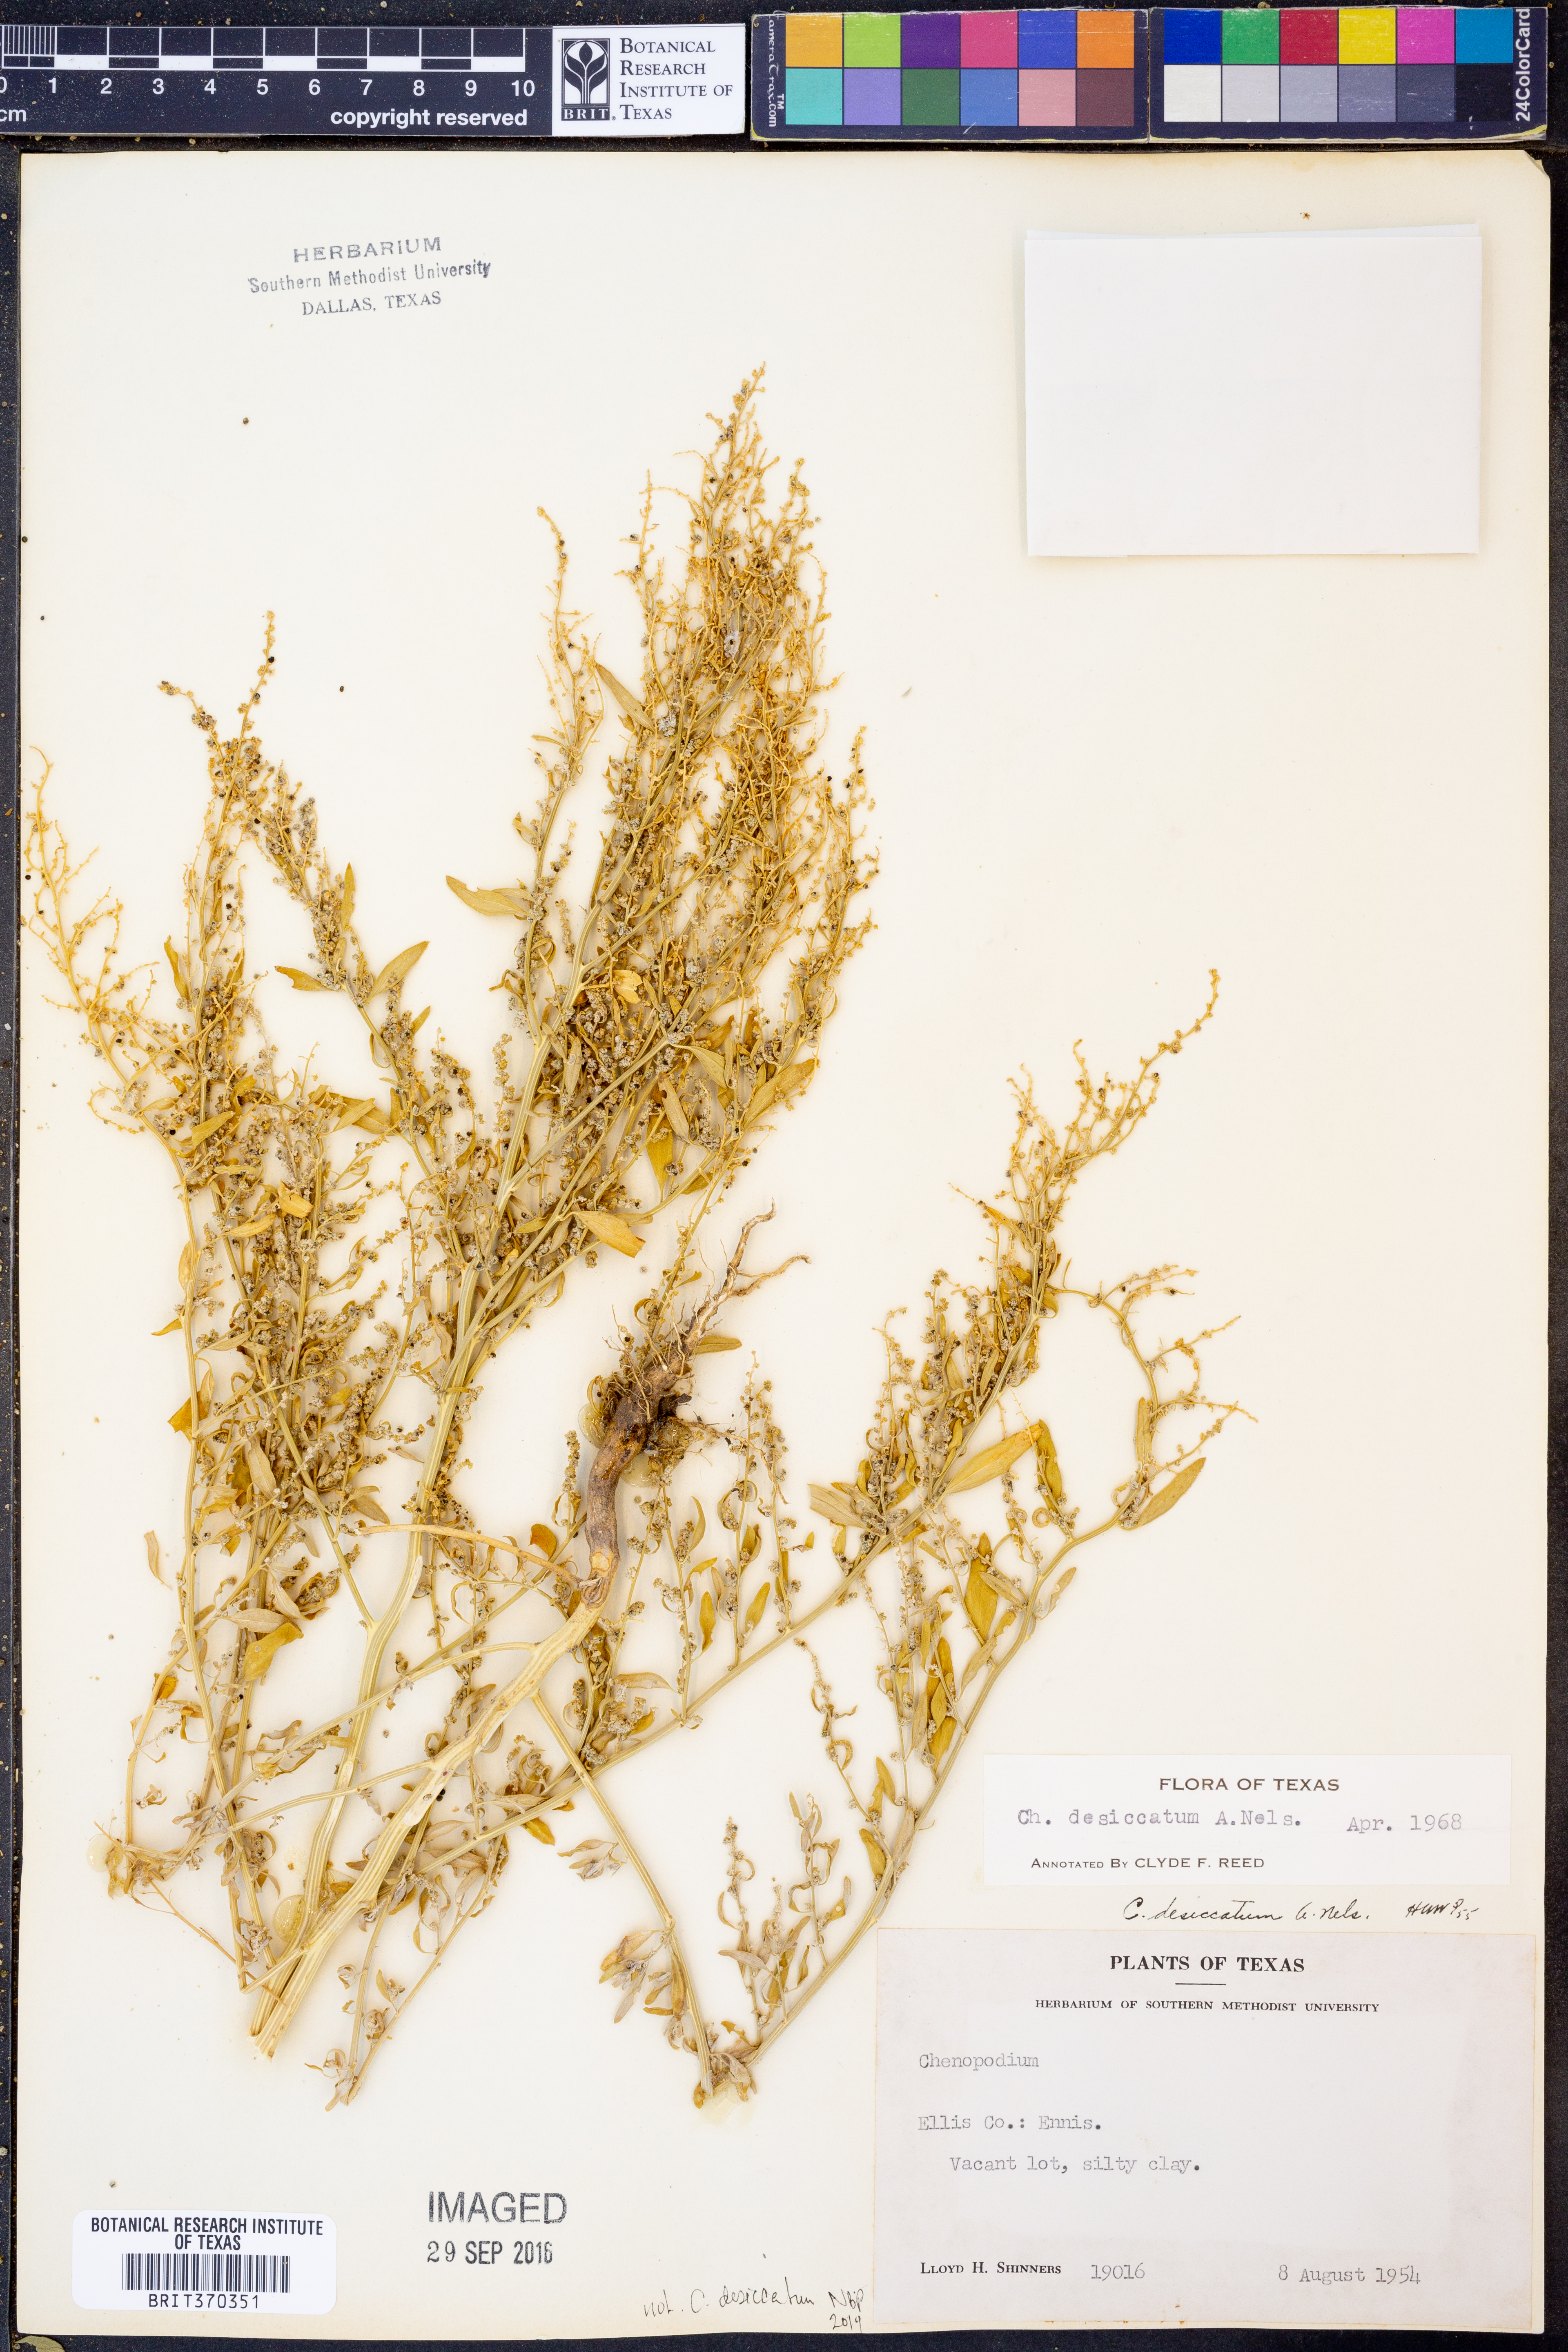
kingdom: Plantae
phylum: Tracheophyta
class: Magnoliopsida
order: Caryophyllales
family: Amaranthaceae
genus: Chenopodium
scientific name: Chenopodium desiccatum
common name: Slimleaf goosefoot
